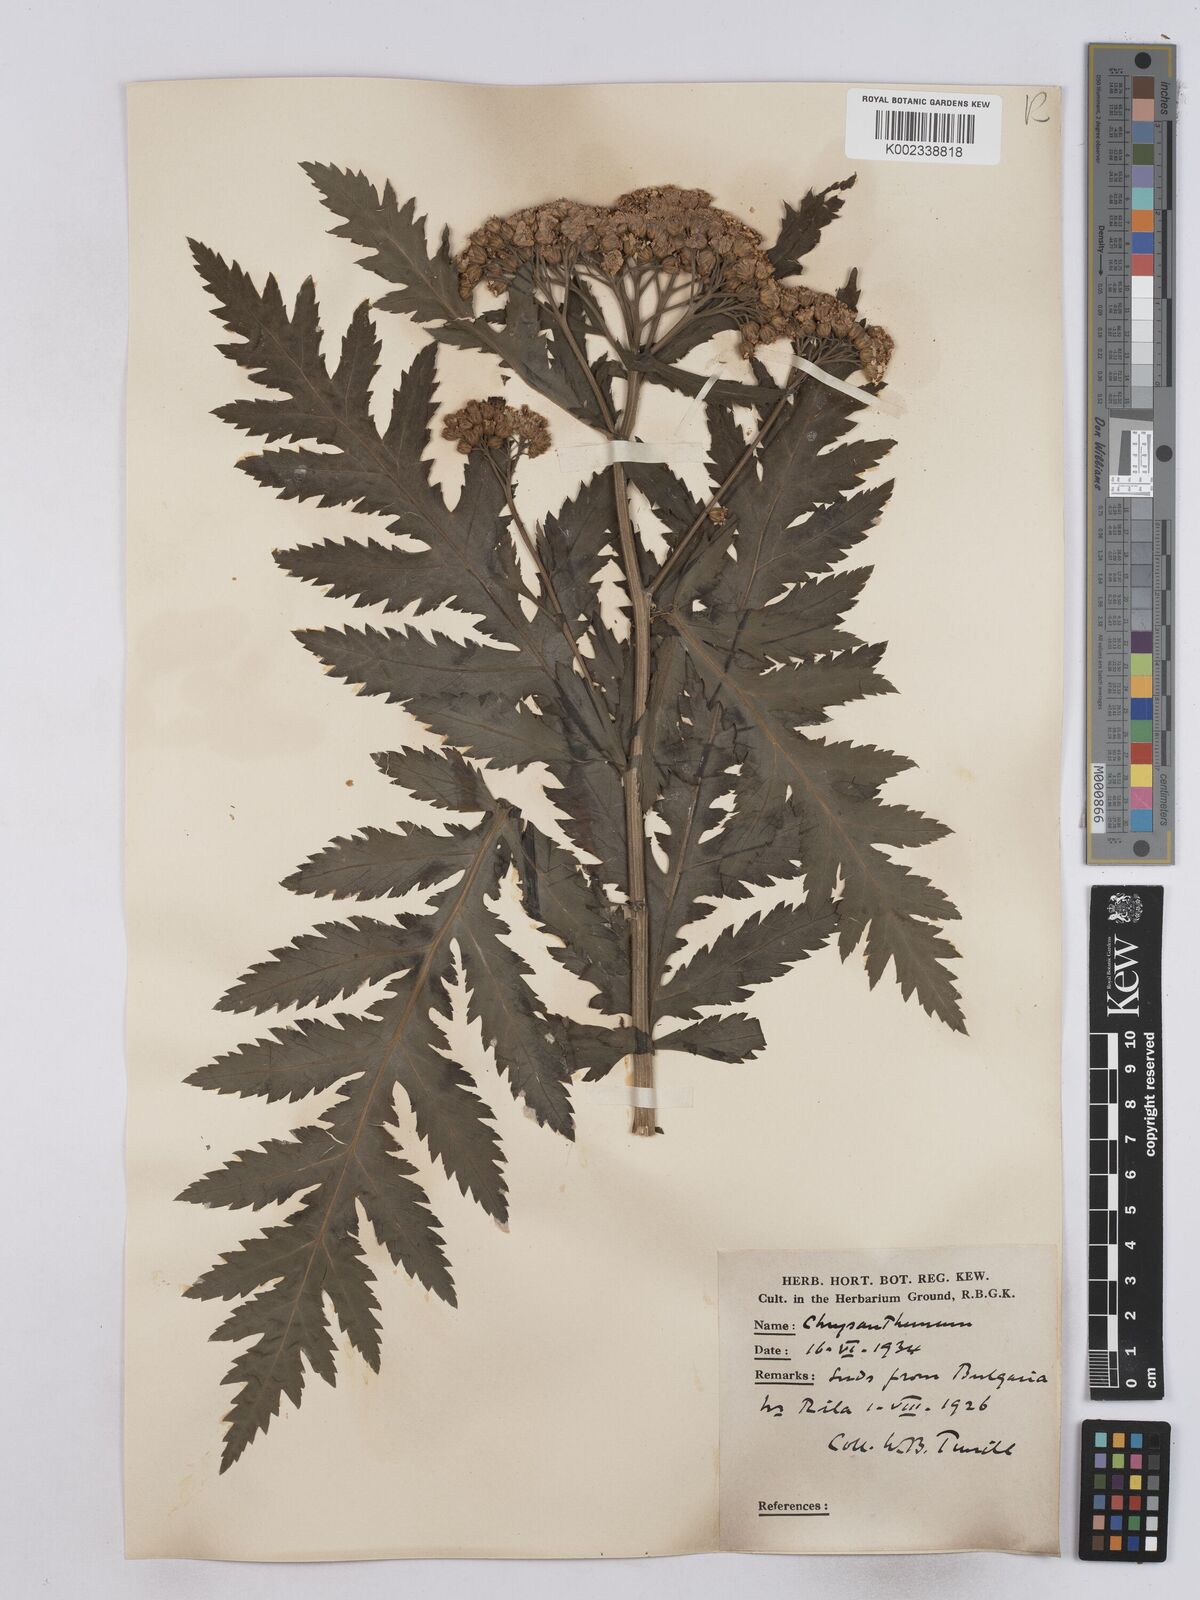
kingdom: Plantae
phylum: Tracheophyta
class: Magnoliopsida
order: Asterales
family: Asteraceae
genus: Tanacetum
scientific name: Tanacetum macrophyllum
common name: Rayed tansy
